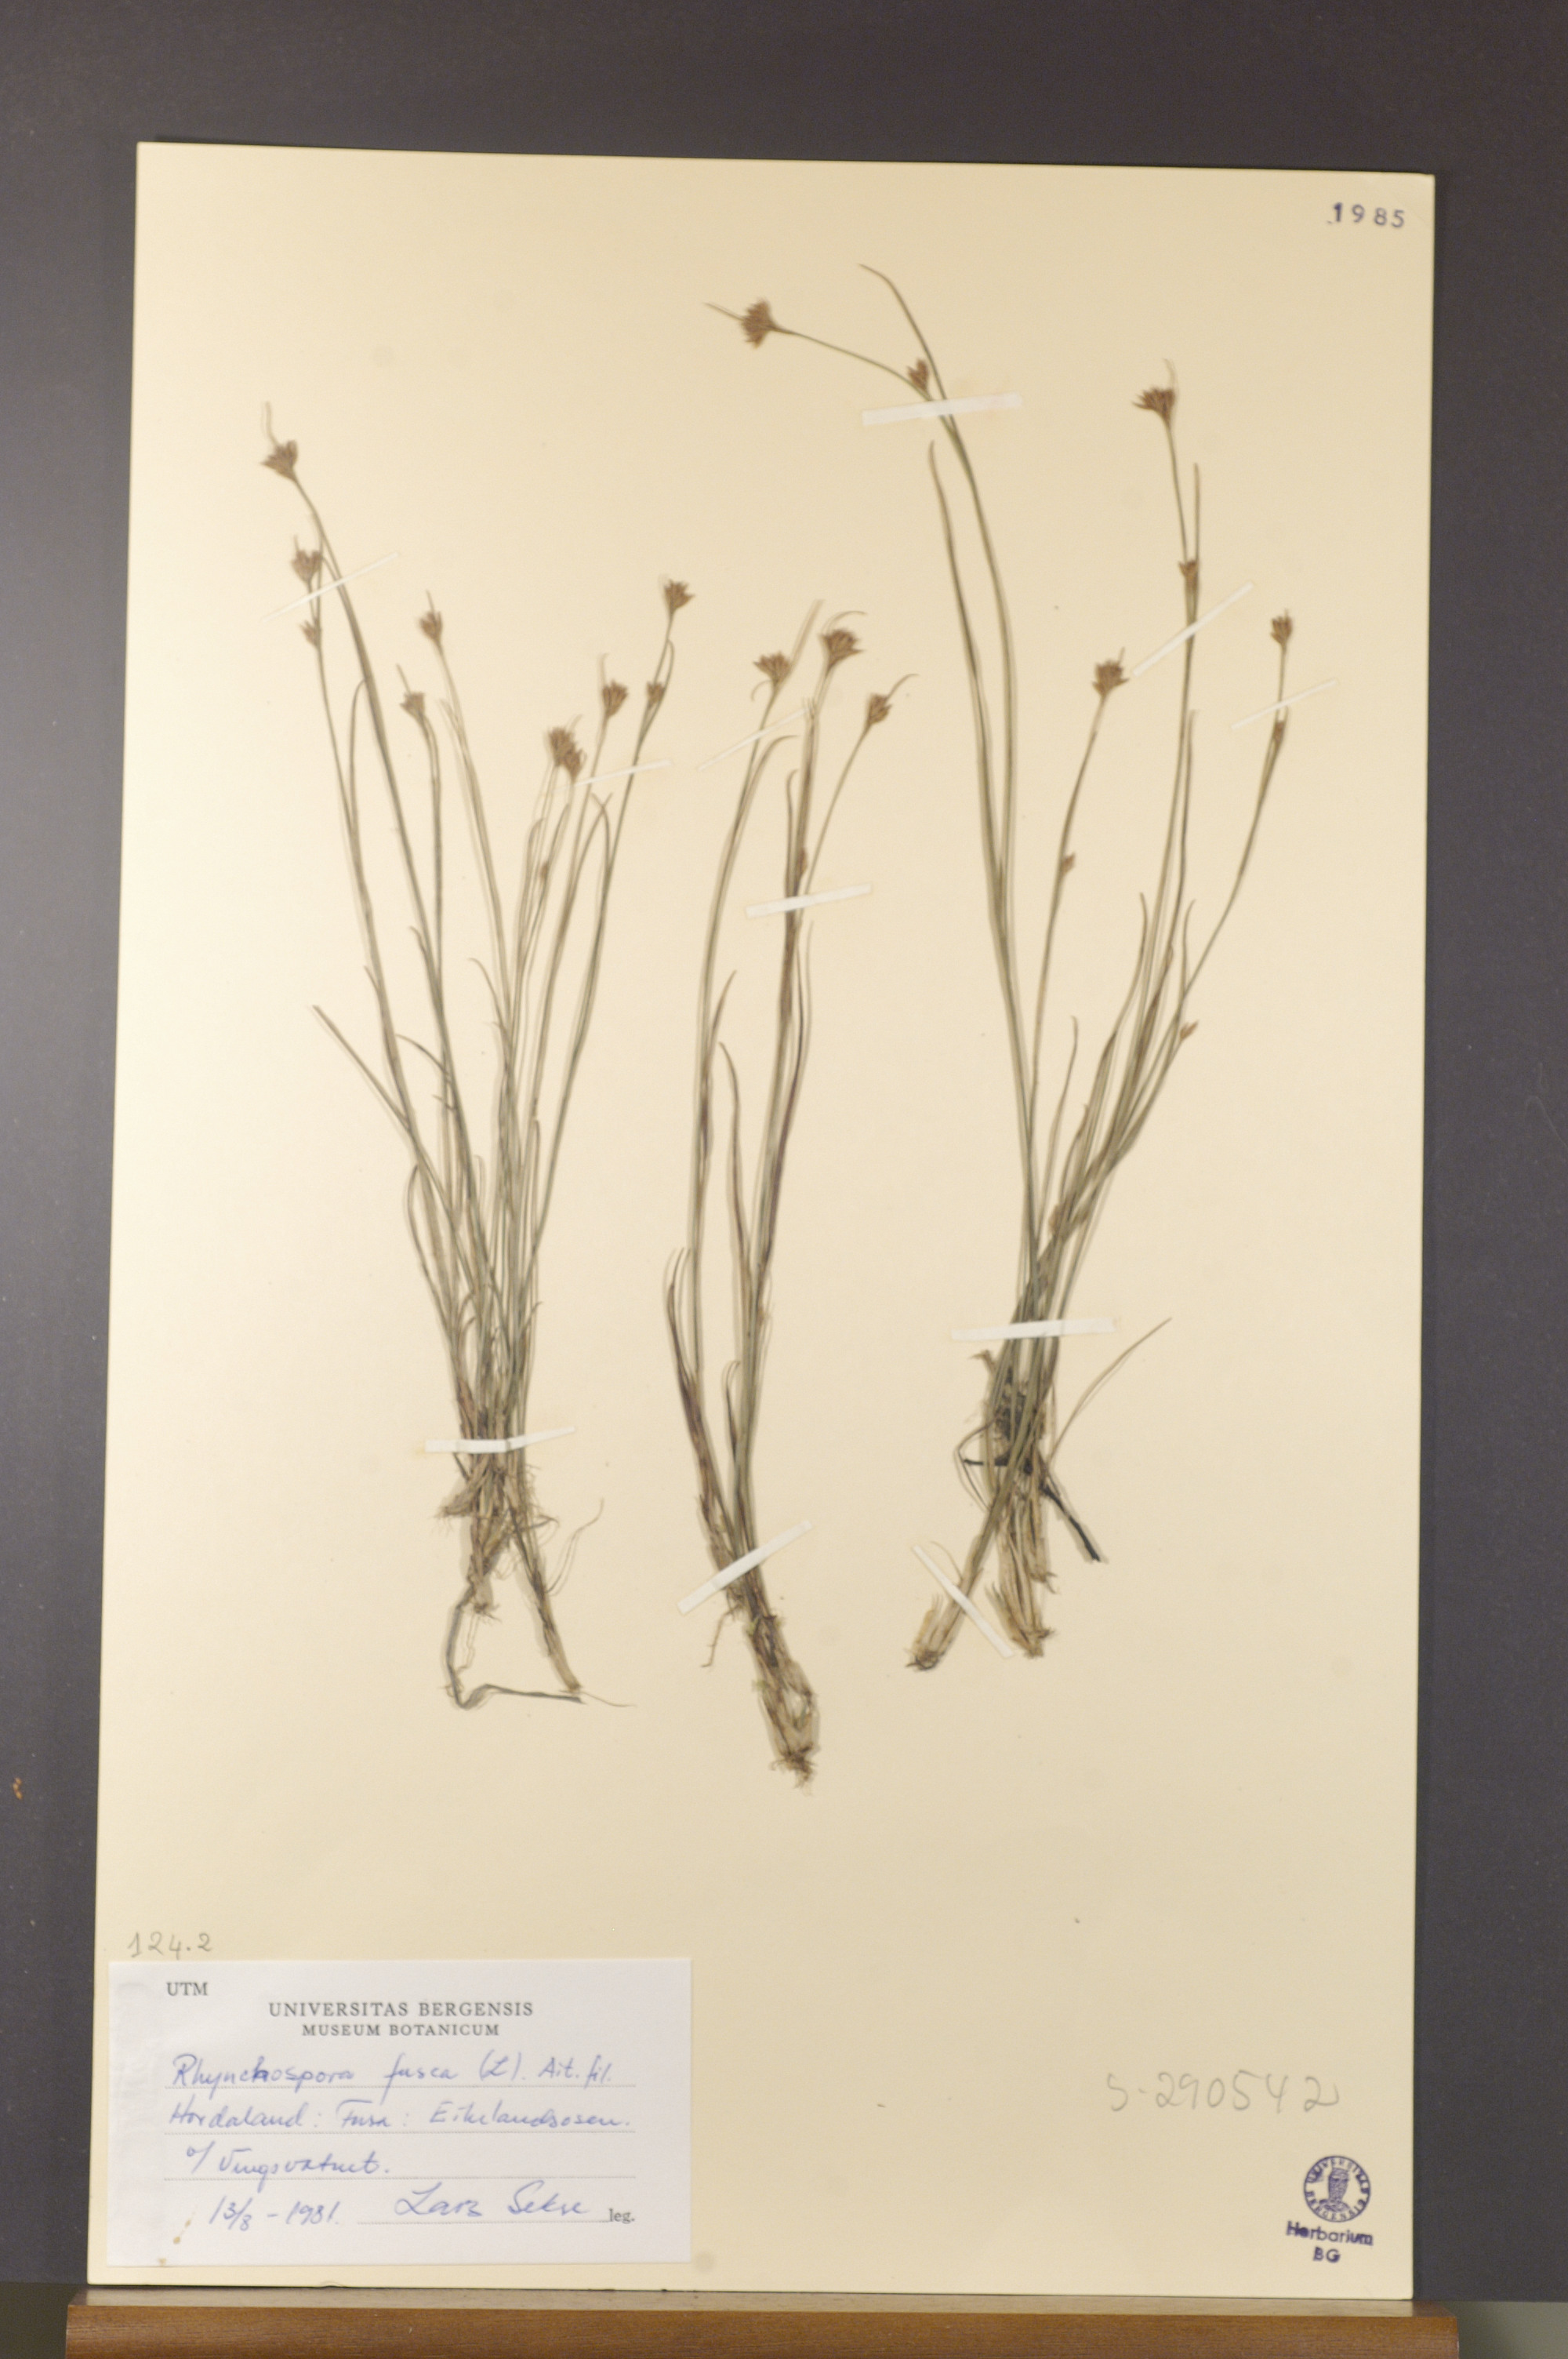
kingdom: Plantae
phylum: Tracheophyta
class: Liliopsida
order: Poales
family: Cyperaceae
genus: Rhynchospora
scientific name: Rhynchospora fusca
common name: Brown beak-sedge
